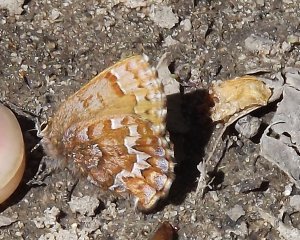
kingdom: Animalia
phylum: Arthropoda
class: Insecta
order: Lepidoptera
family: Lycaenidae
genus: Incisalia
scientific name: Incisalia niphon
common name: Eastern Pine Elfin
